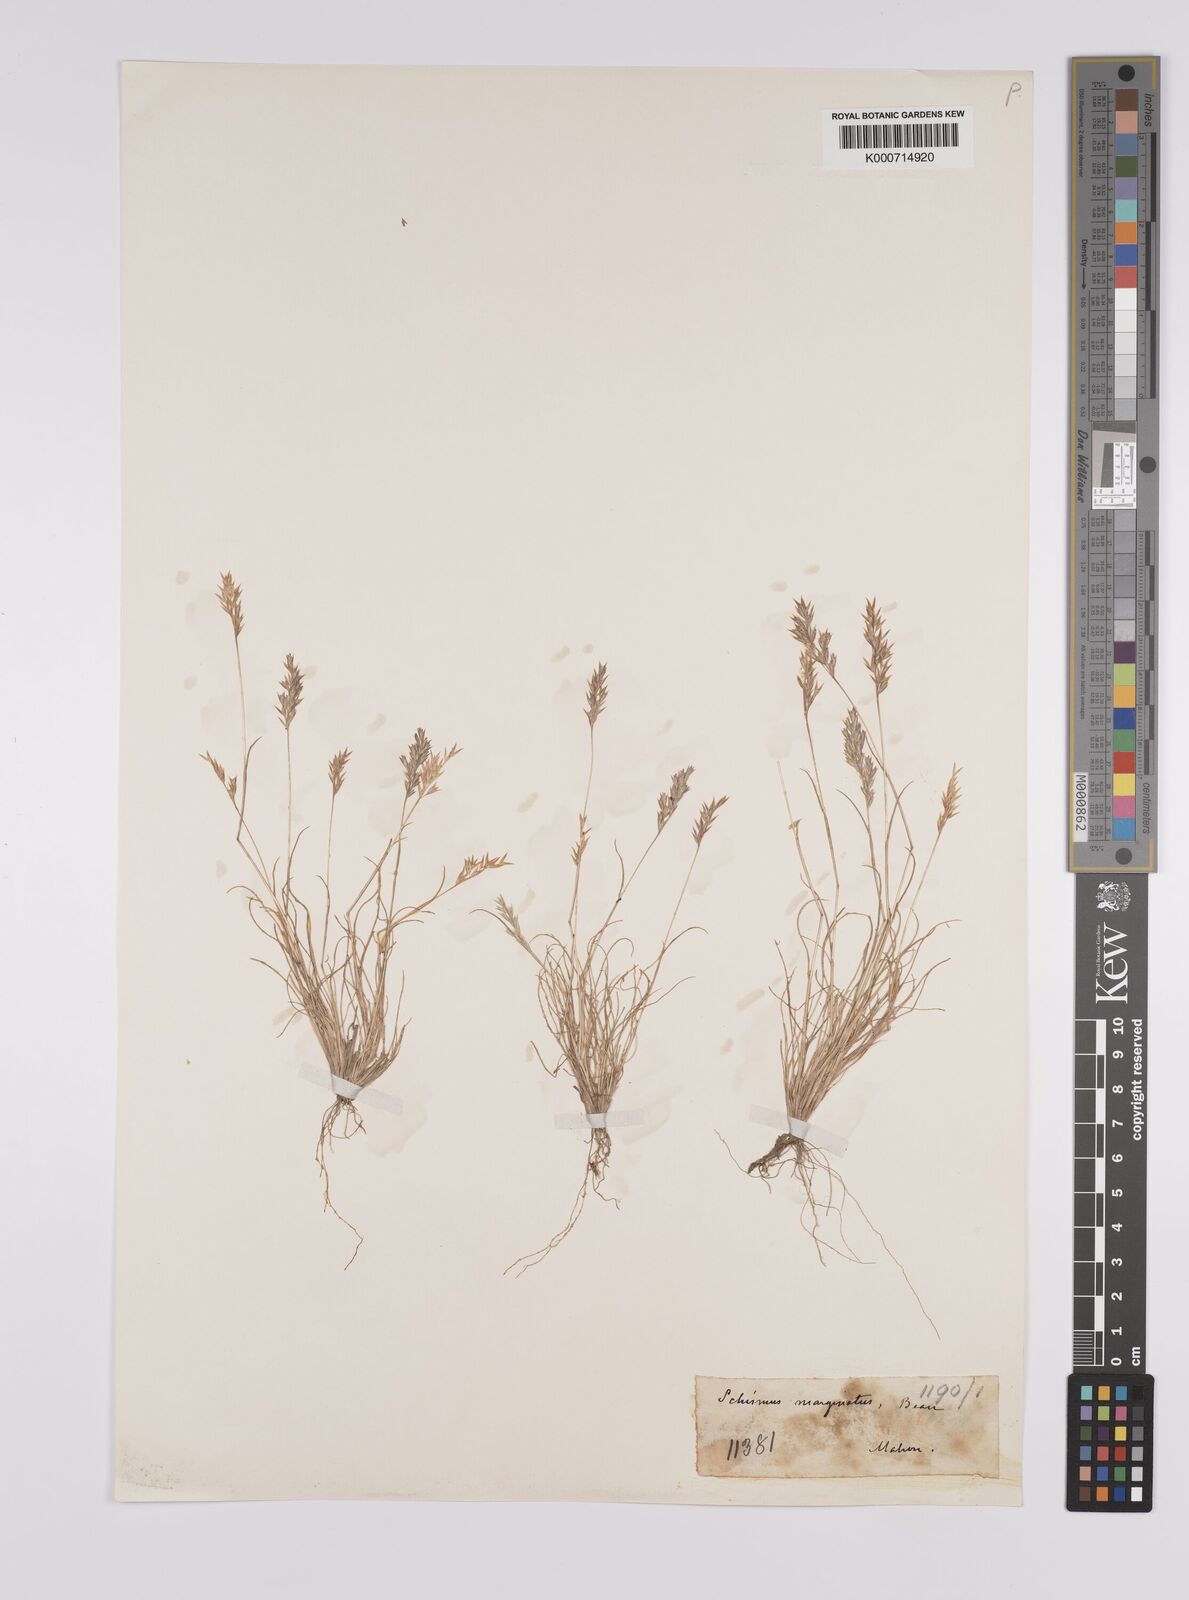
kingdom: Plantae
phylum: Tracheophyta
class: Liliopsida
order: Poales
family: Poaceae
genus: Schismus
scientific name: Schismus barbatus
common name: Kelch-grass
